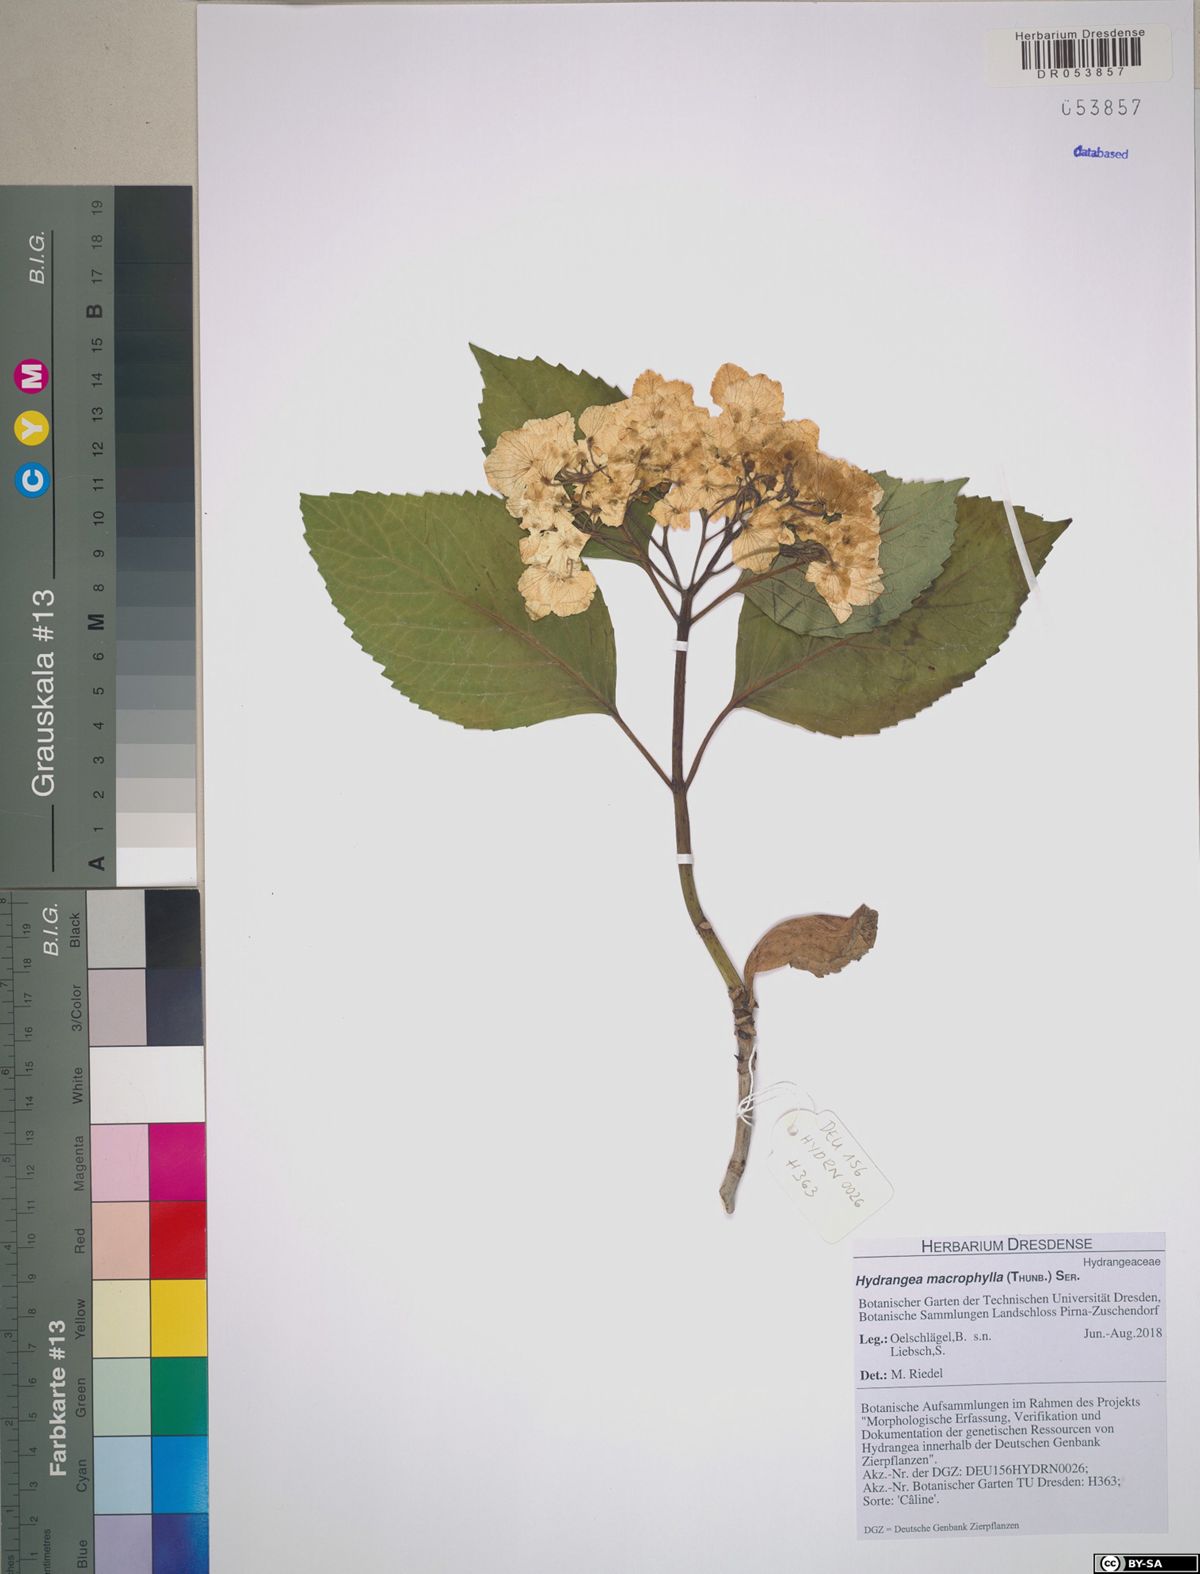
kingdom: Plantae
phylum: Tracheophyta
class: Magnoliopsida
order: Cornales
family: Hydrangeaceae
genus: Hydrangea
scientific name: Hydrangea macrophylla
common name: Hydrangea
